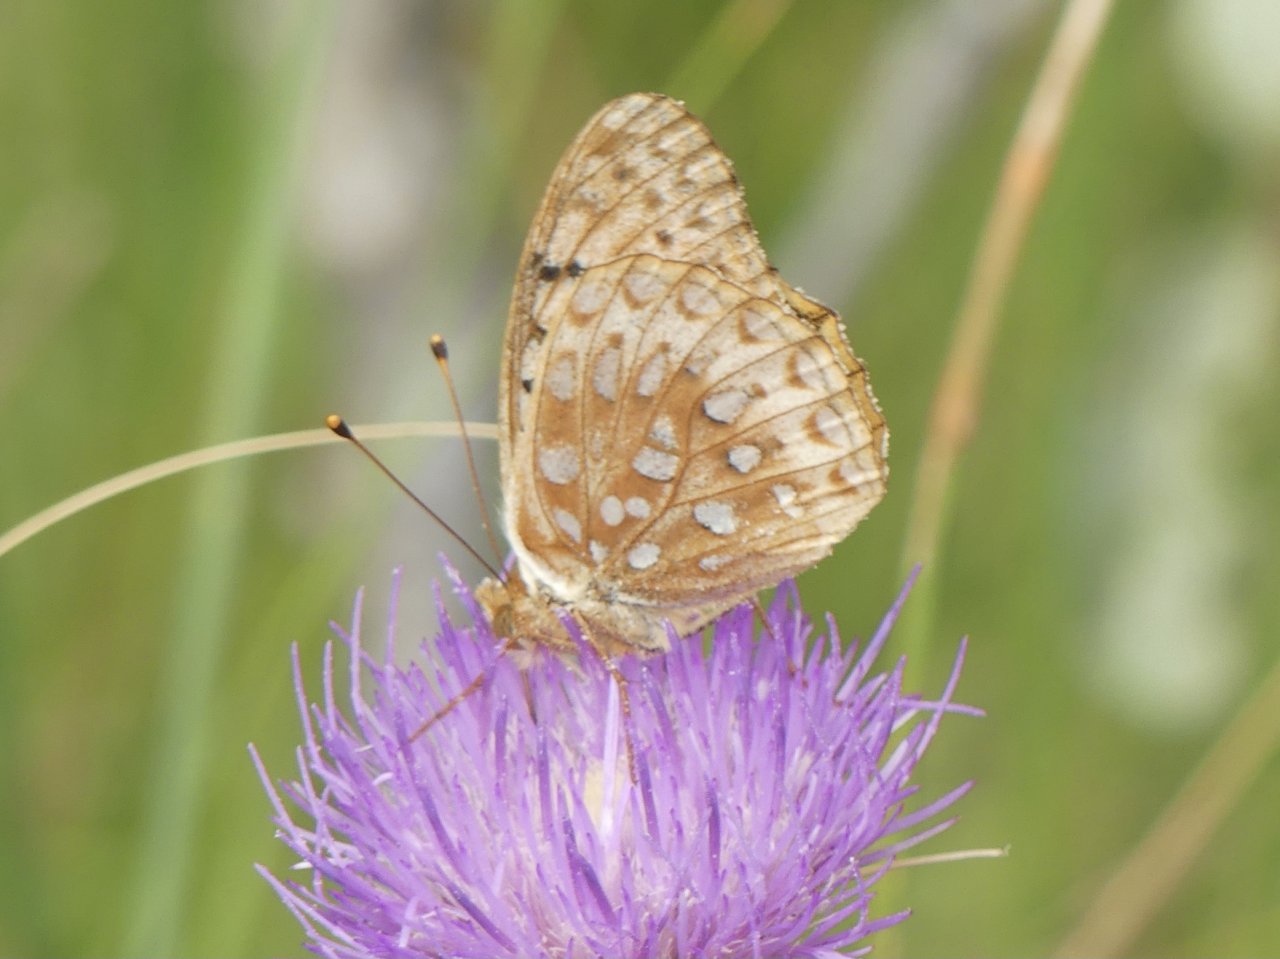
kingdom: Animalia
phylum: Arthropoda
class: Insecta
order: Lepidoptera
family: Nymphalidae
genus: Speyeria
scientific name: Speyeria aphrodite
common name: Aphrodite Fritillary
